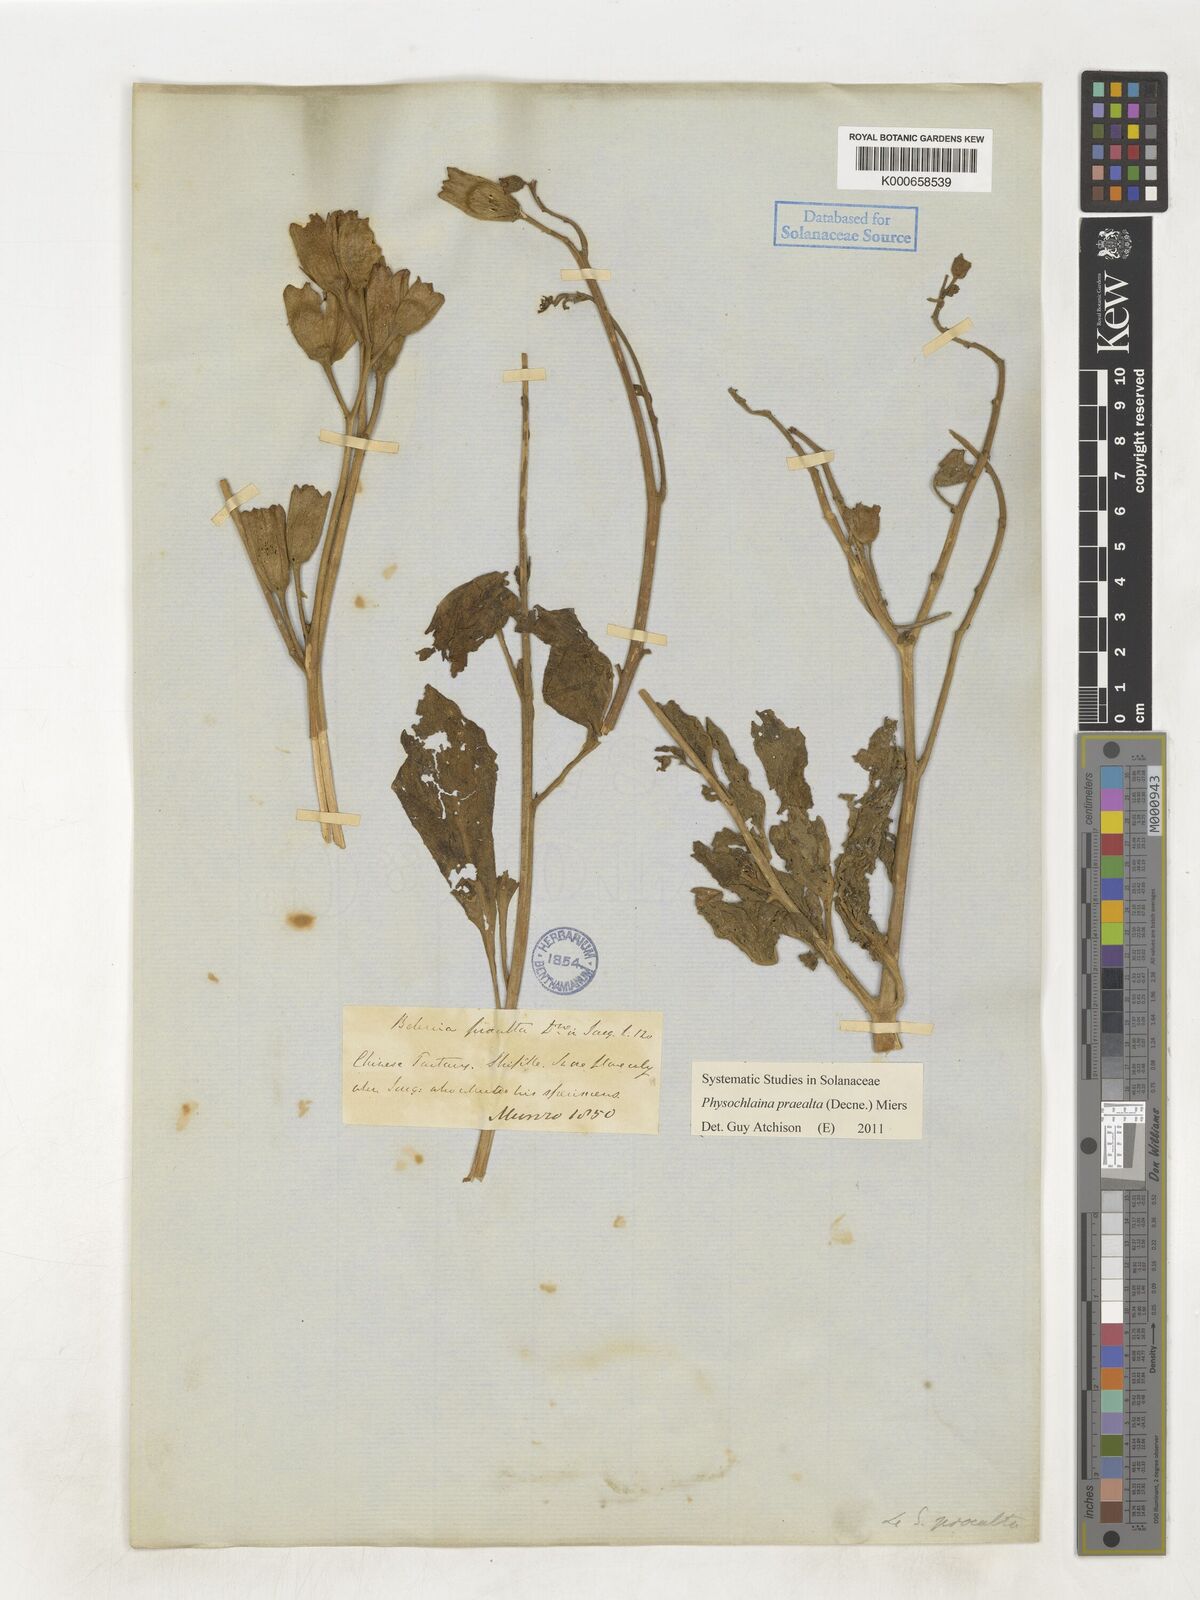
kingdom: Plantae
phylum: Tracheophyta
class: Magnoliopsida
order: Solanales
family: Solanaceae
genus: Physochlaina
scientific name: Physochlaina praealta
